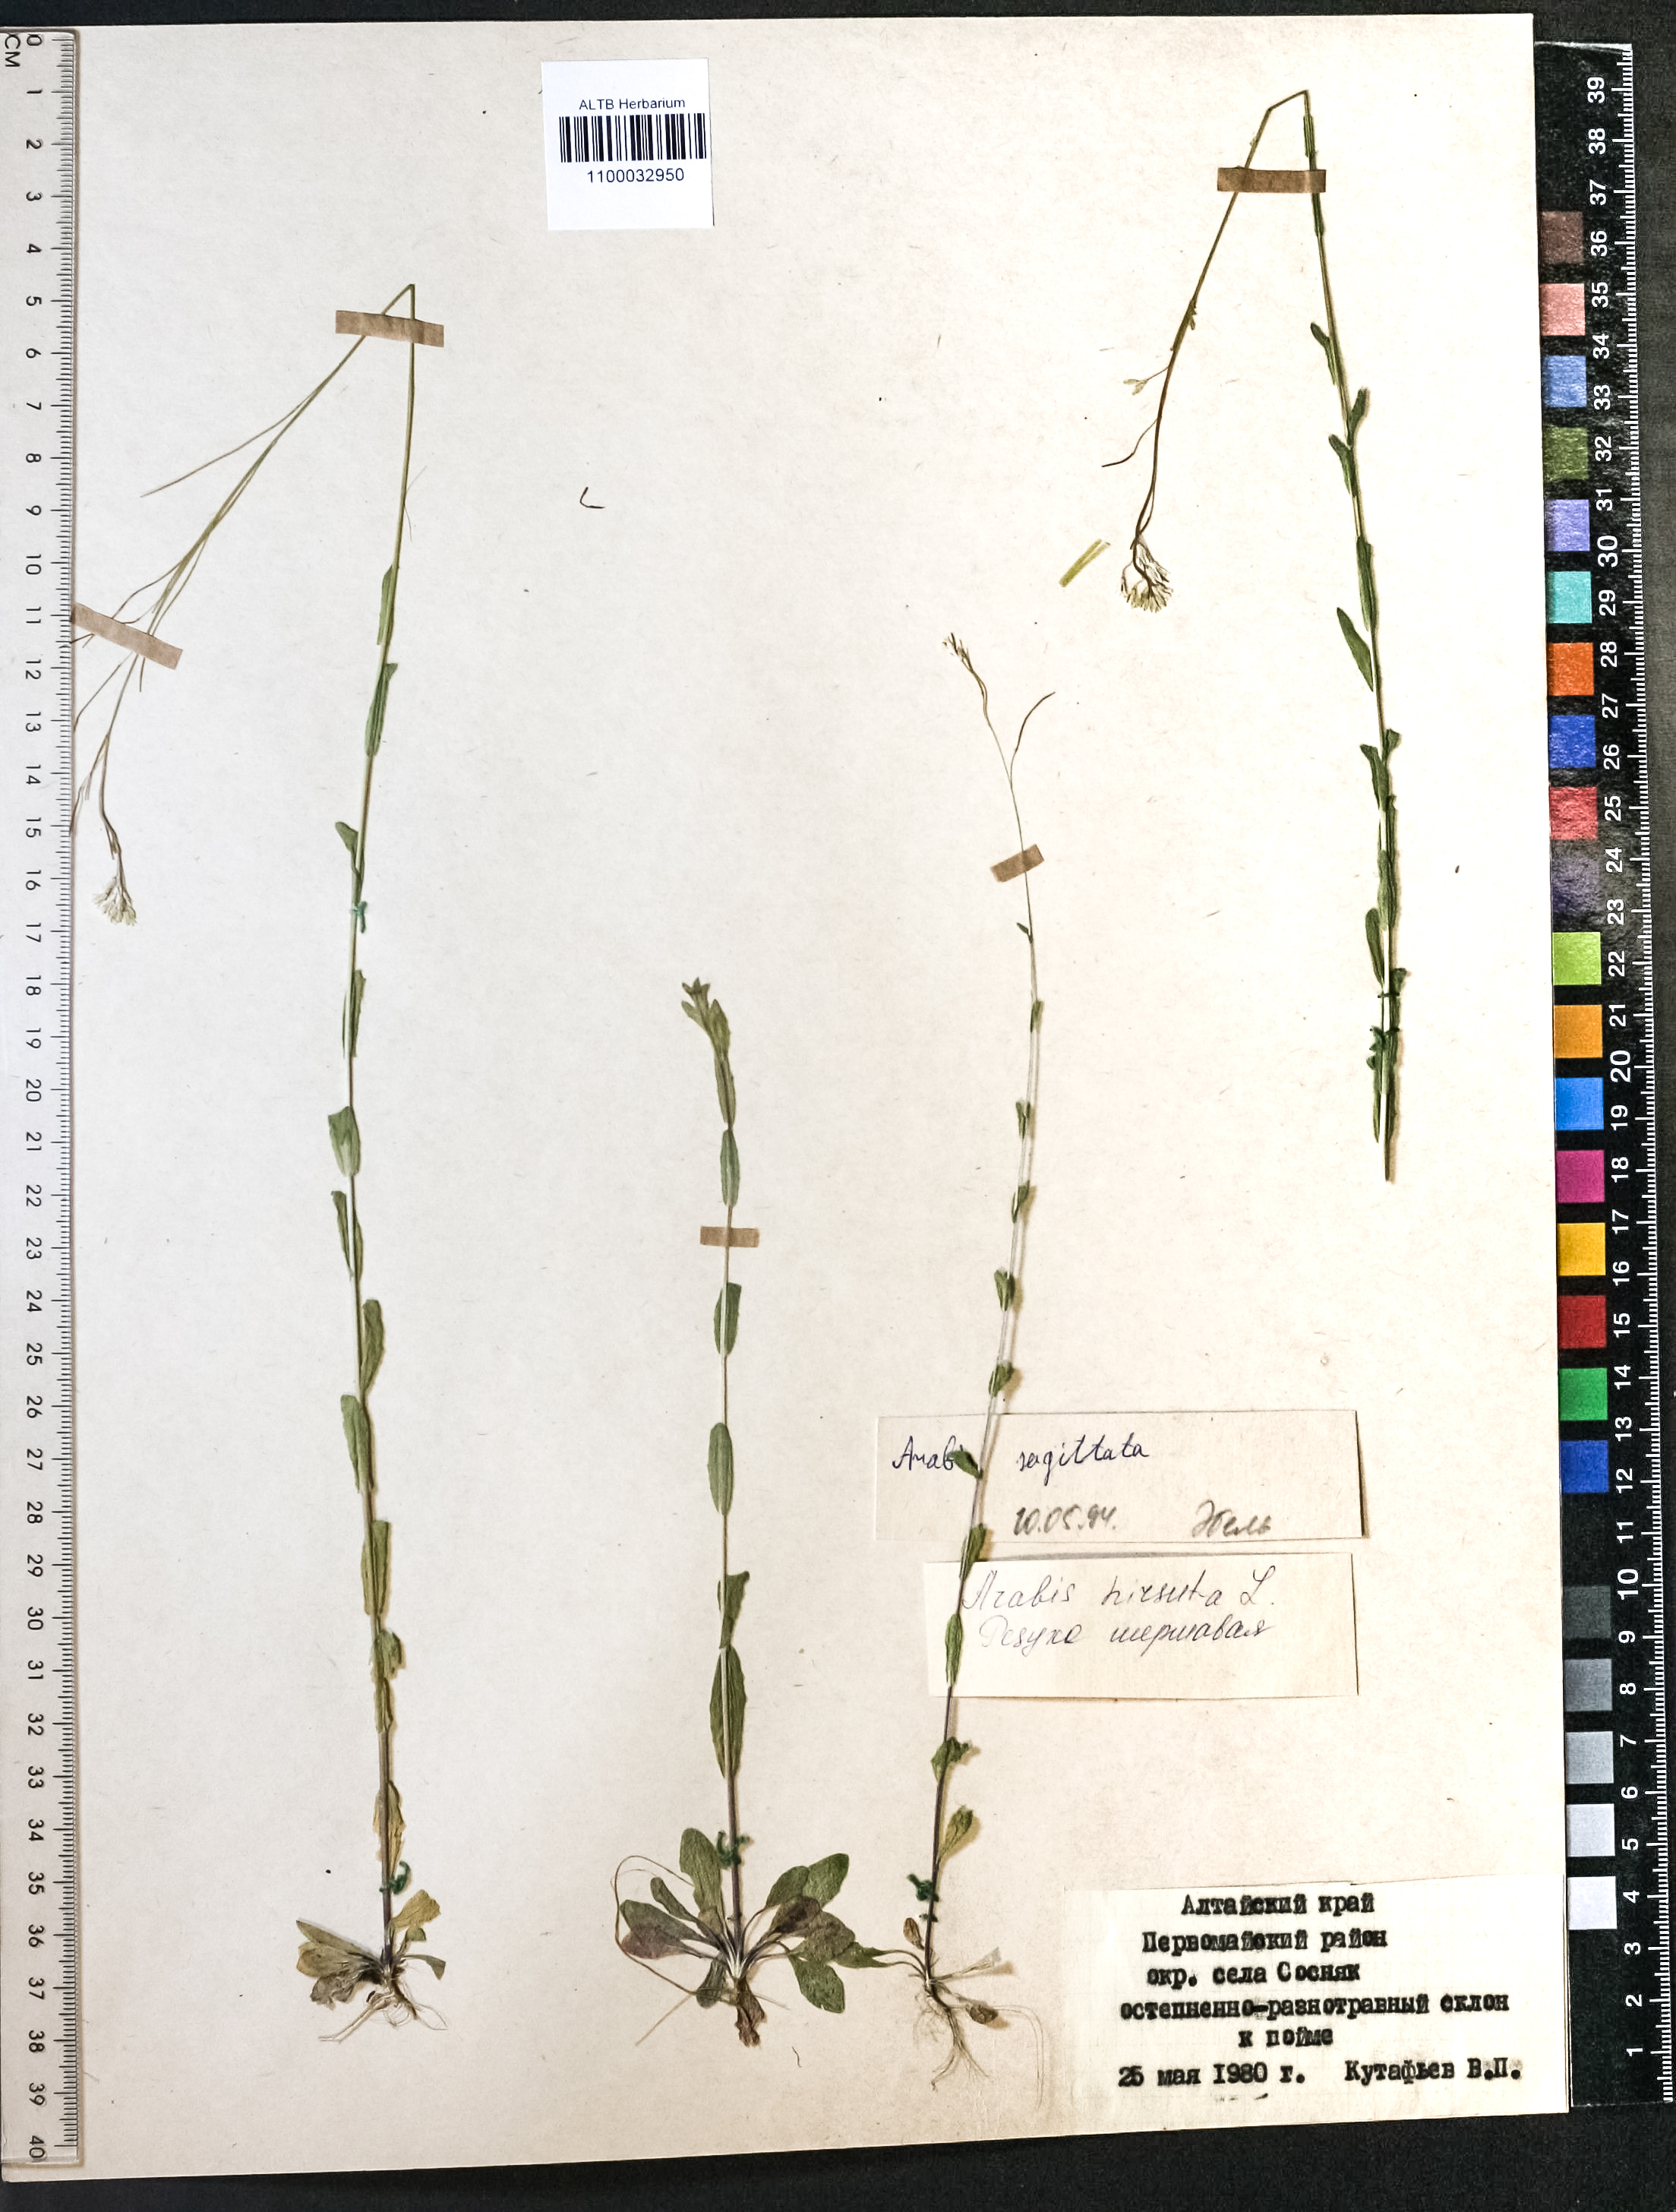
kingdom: Plantae
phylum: Tracheophyta
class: Magnoliopsida
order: Brassicales
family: Brassicaceae
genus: Arabis
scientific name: Arabis sagittata
